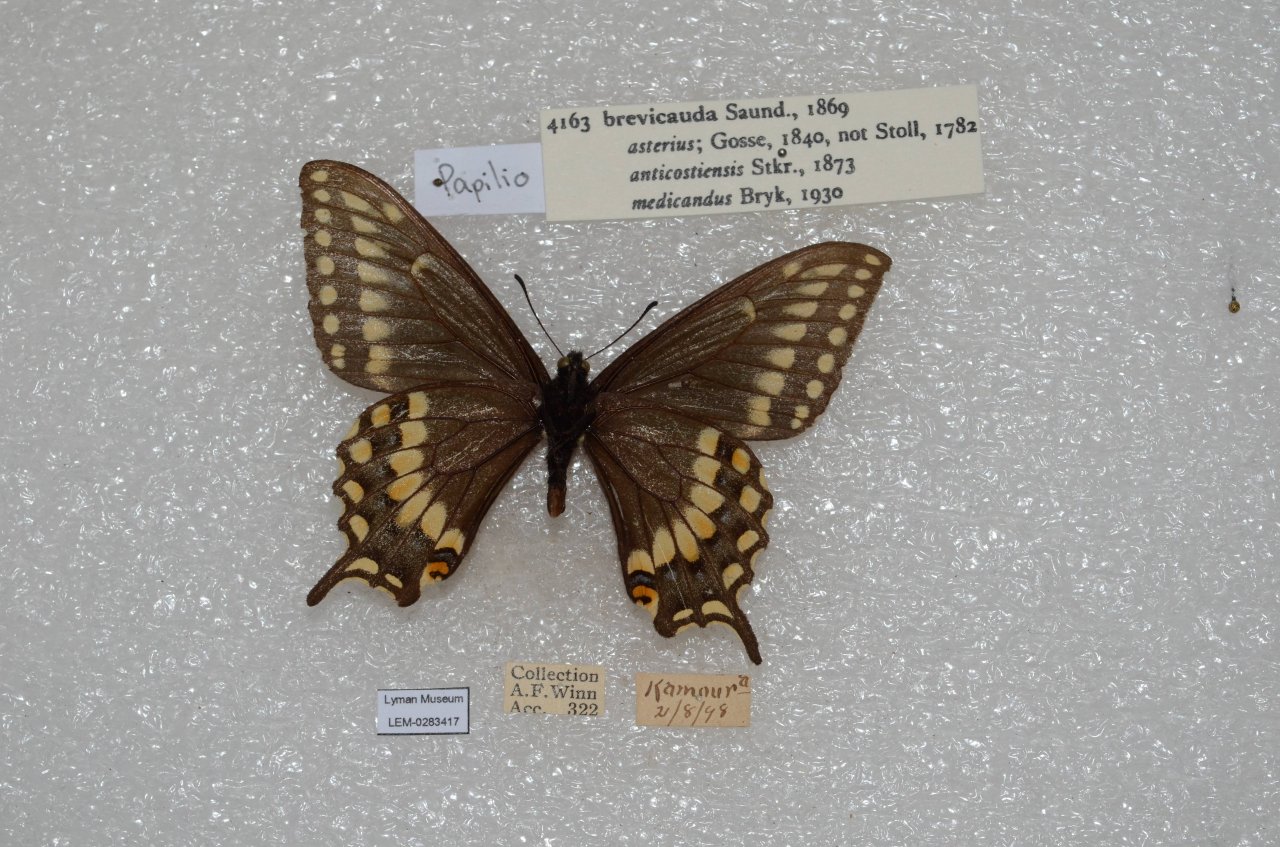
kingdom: Animalia
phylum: Arthropoda
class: Insecta
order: Lepidoptera
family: Papilionidae
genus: Papilio
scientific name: Papilio brevicauda
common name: Short-tailed Swallowtail
